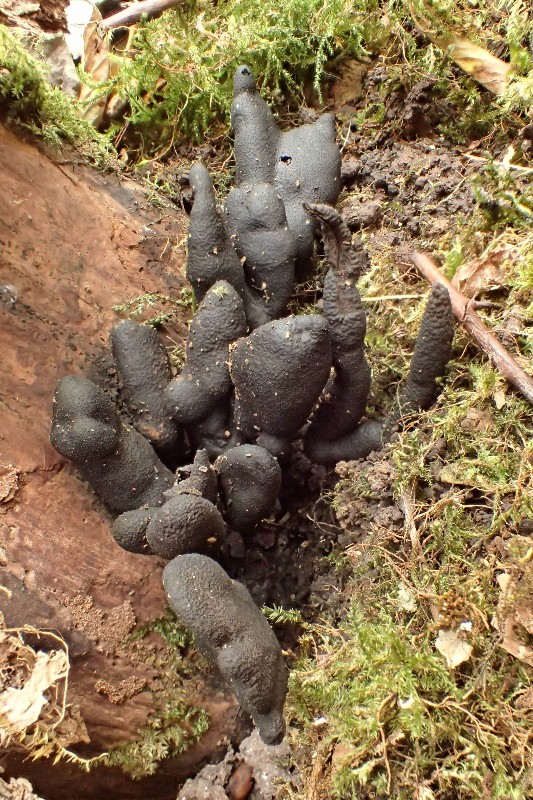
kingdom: Fungi
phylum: Ascomycota
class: Sordariomycetes
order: Xylariales
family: Xylariaceae
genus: Xylaria
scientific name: Xylaria polymorpha
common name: kølle-stødsvamp
